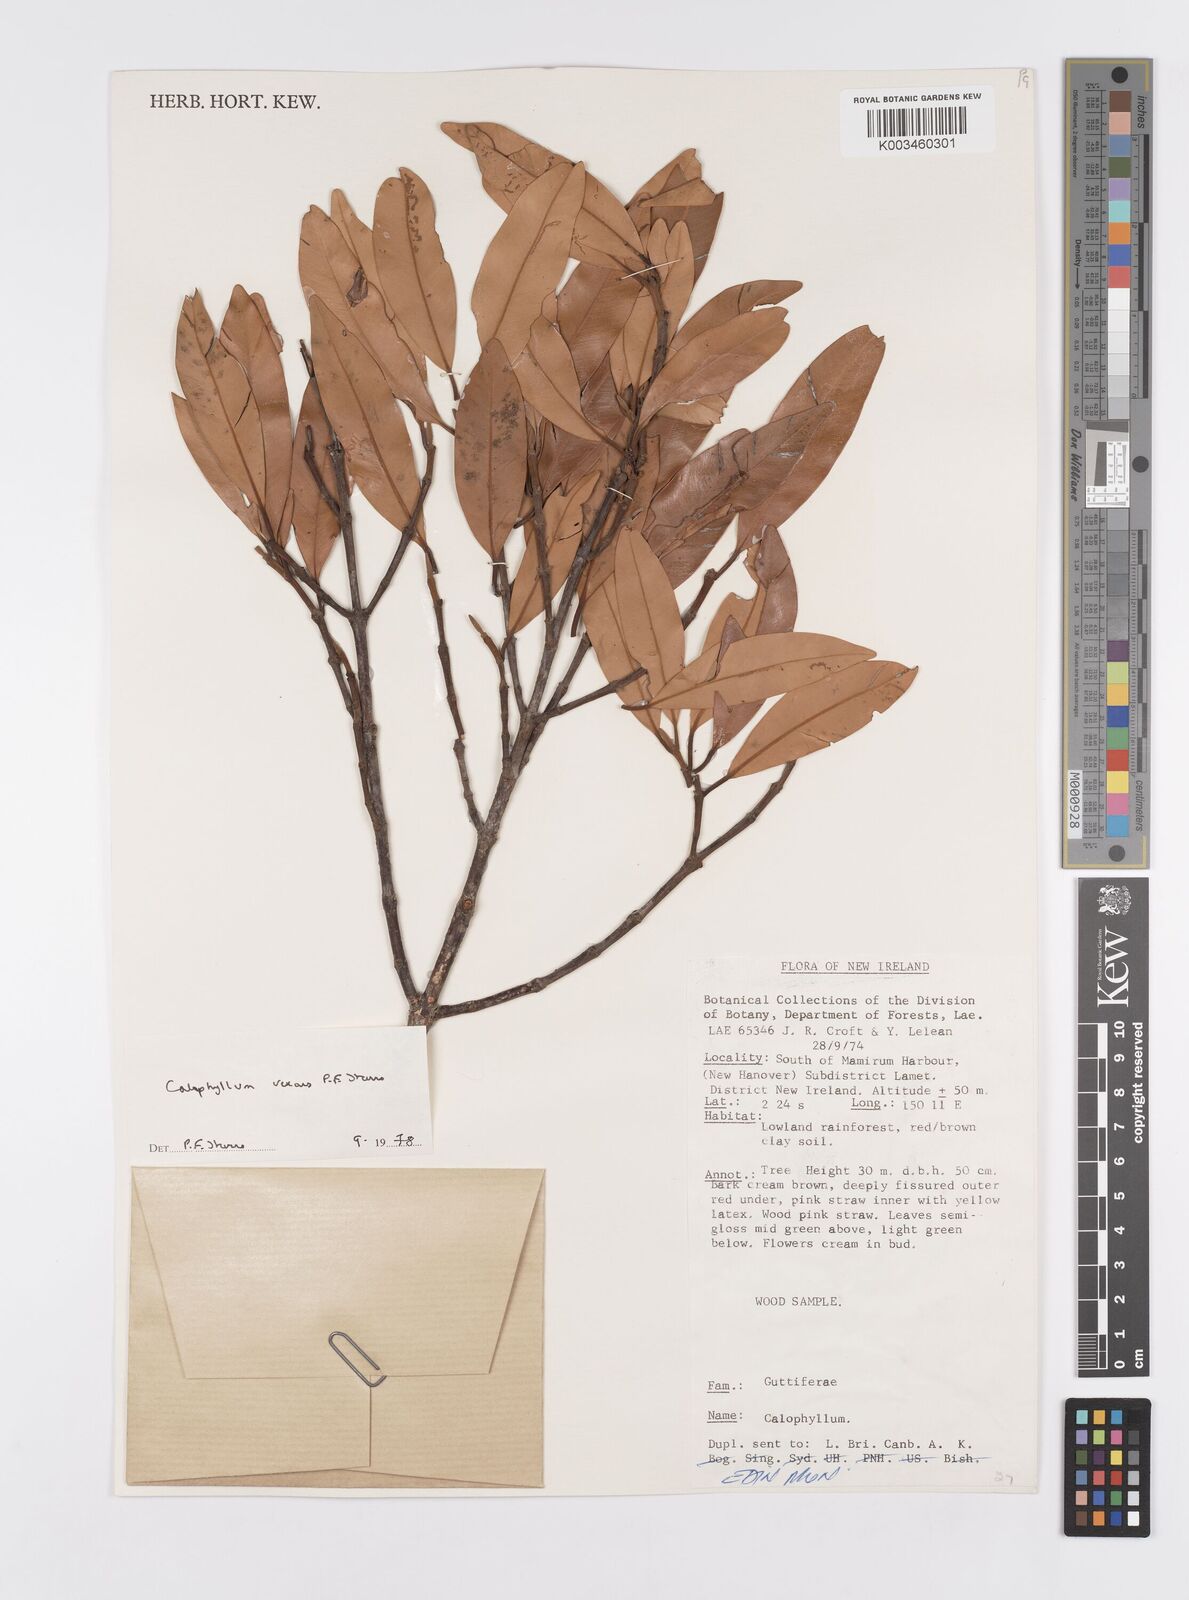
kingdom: Plantae
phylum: Tracheophyta
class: Magnoliopsida
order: Malpighiales
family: Calophyllaceae
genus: Calophyllum
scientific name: Calophyllum vexans
